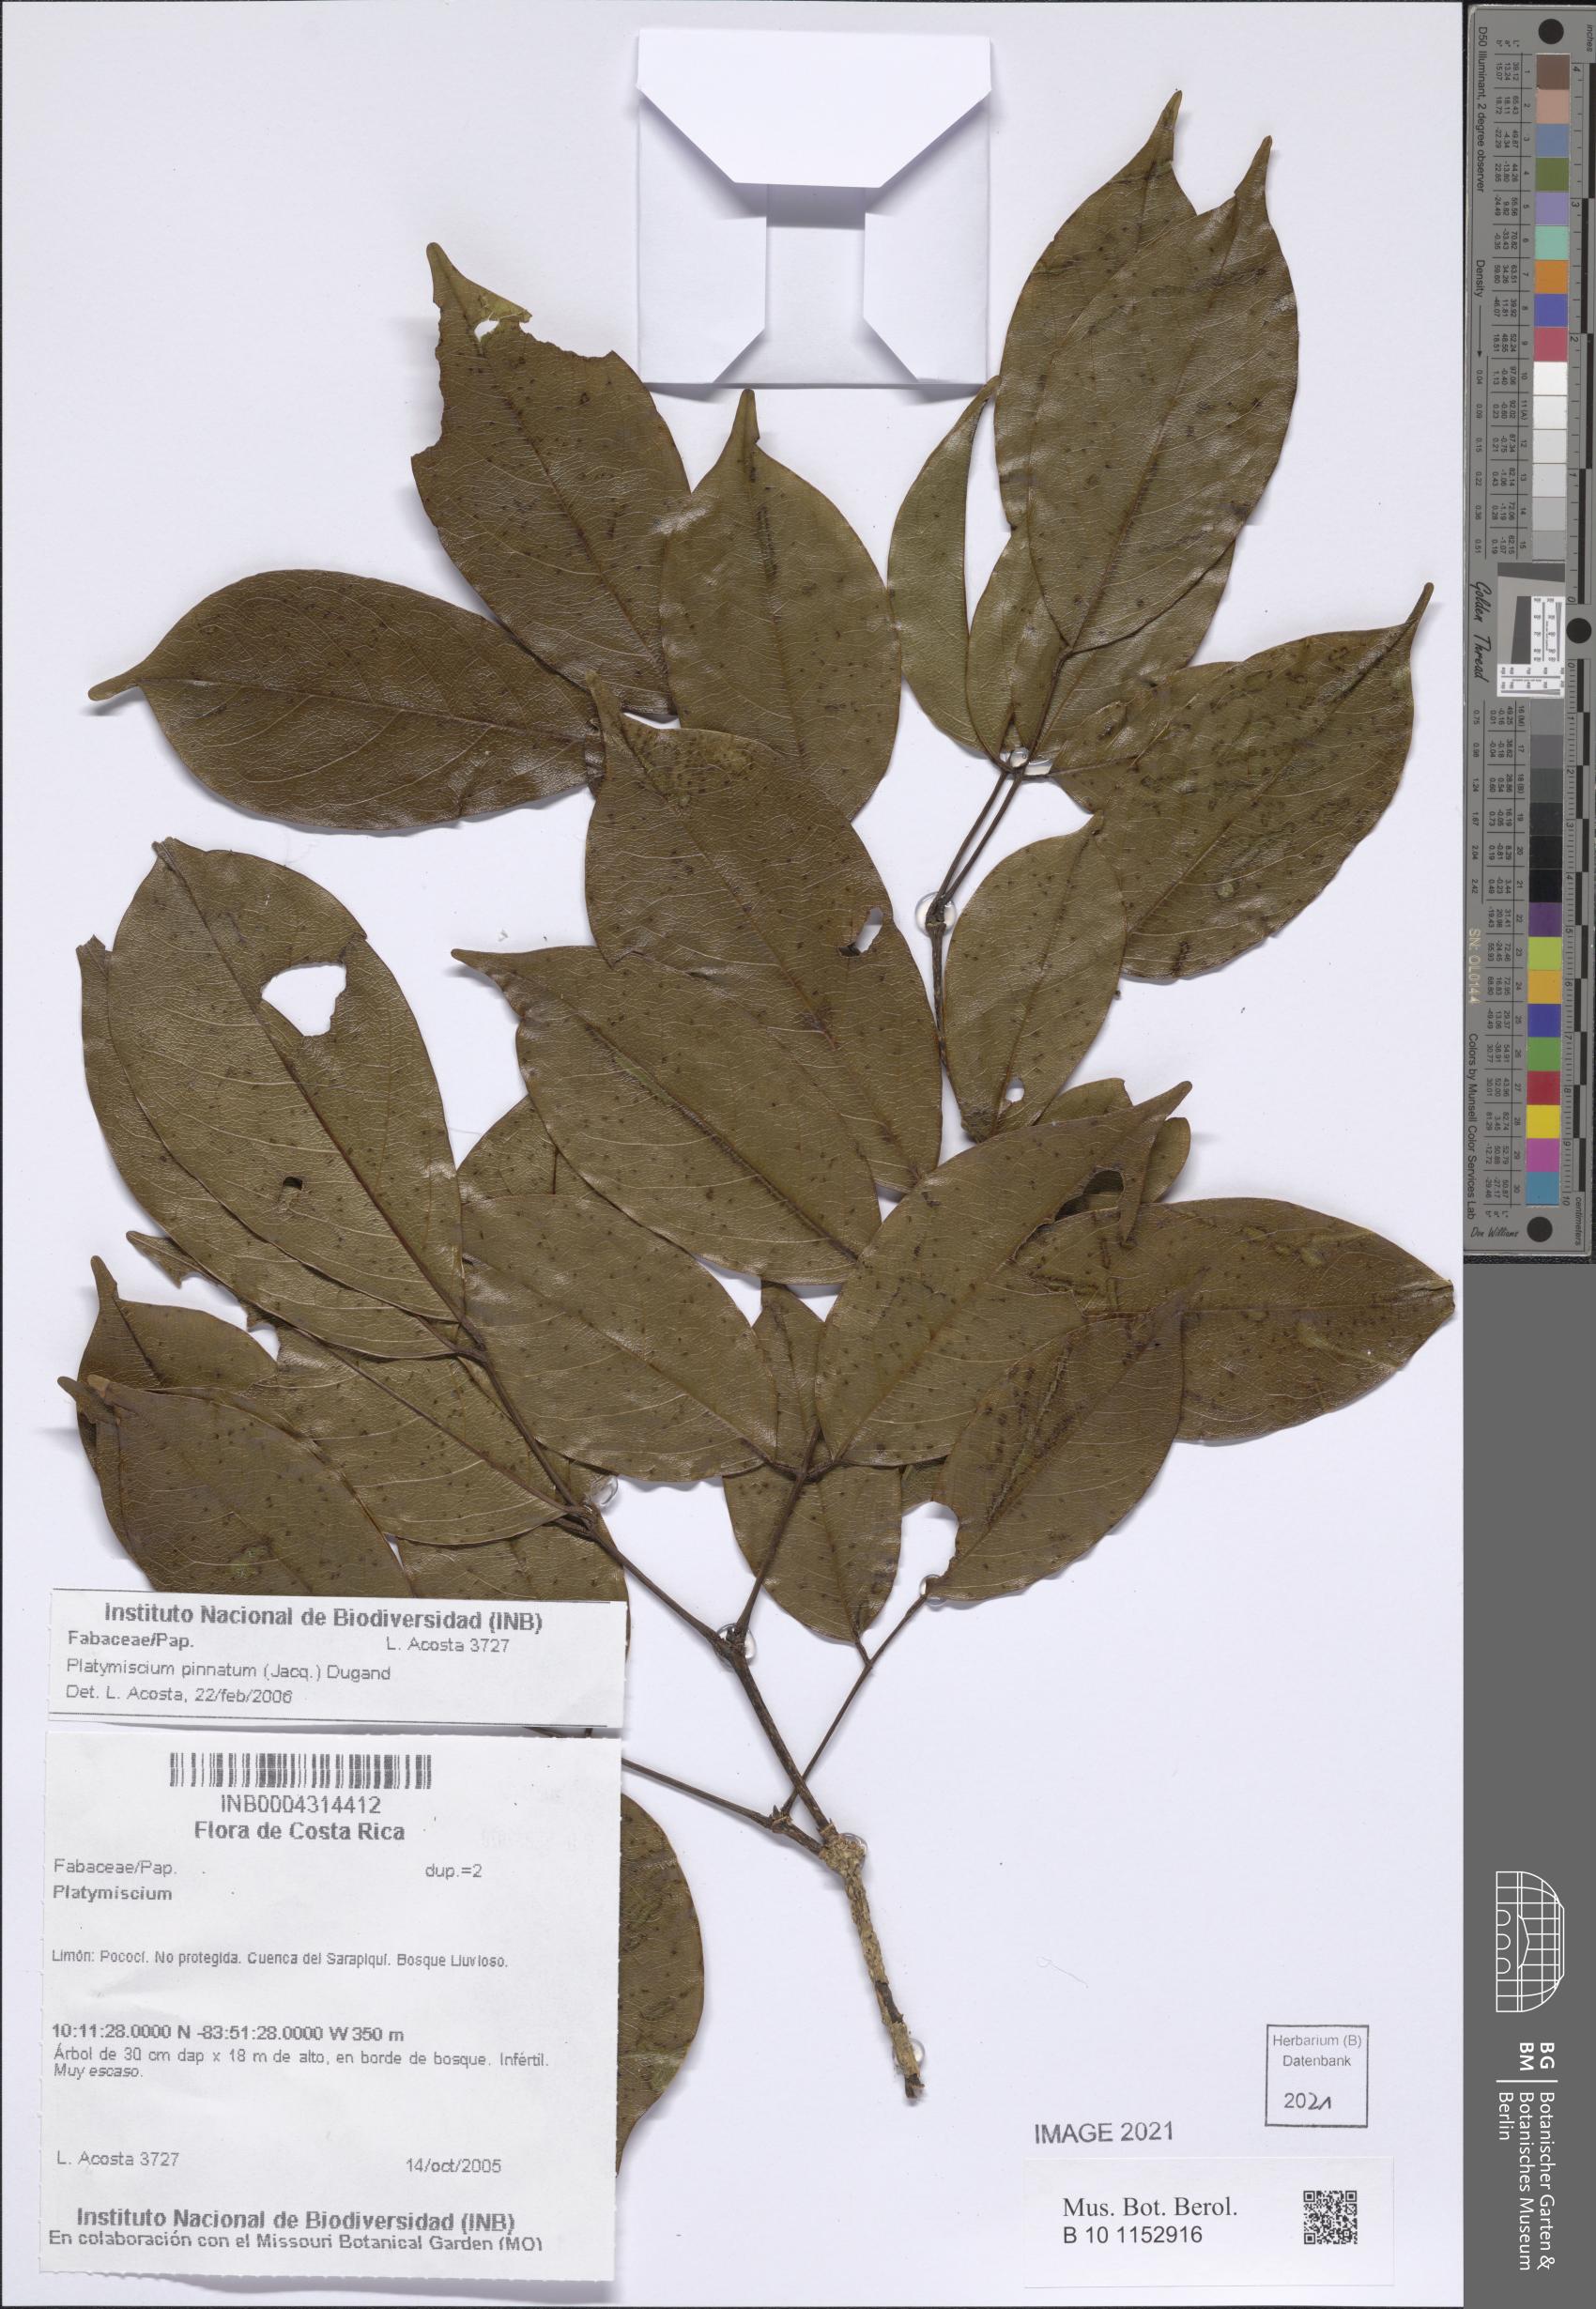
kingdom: Plantae
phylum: Tracheophyta
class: Magnoliopsida
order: Fabales
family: Fabaceae
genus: Platymiscium
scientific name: Platymiscium pinnatum
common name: Panama redwood
